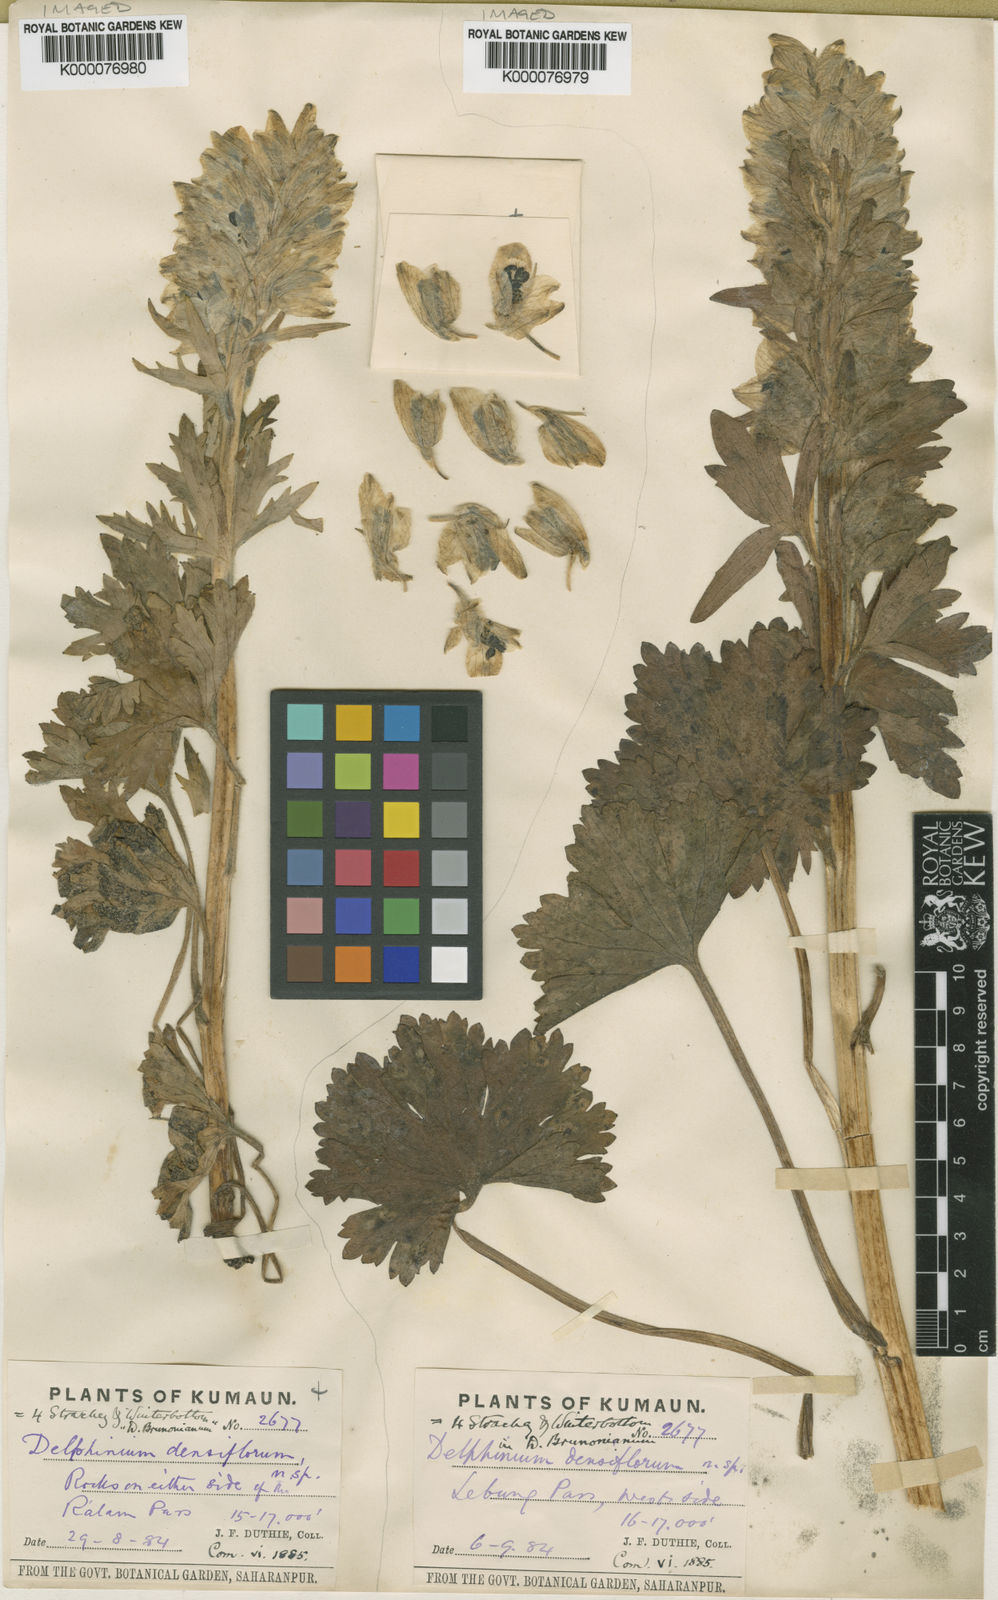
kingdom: Plantae
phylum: Tracheophyta
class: Magnoliopsida
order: Ranunculales
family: Ranunculaceae
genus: Delphinium
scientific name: Delphinium densiflorum
